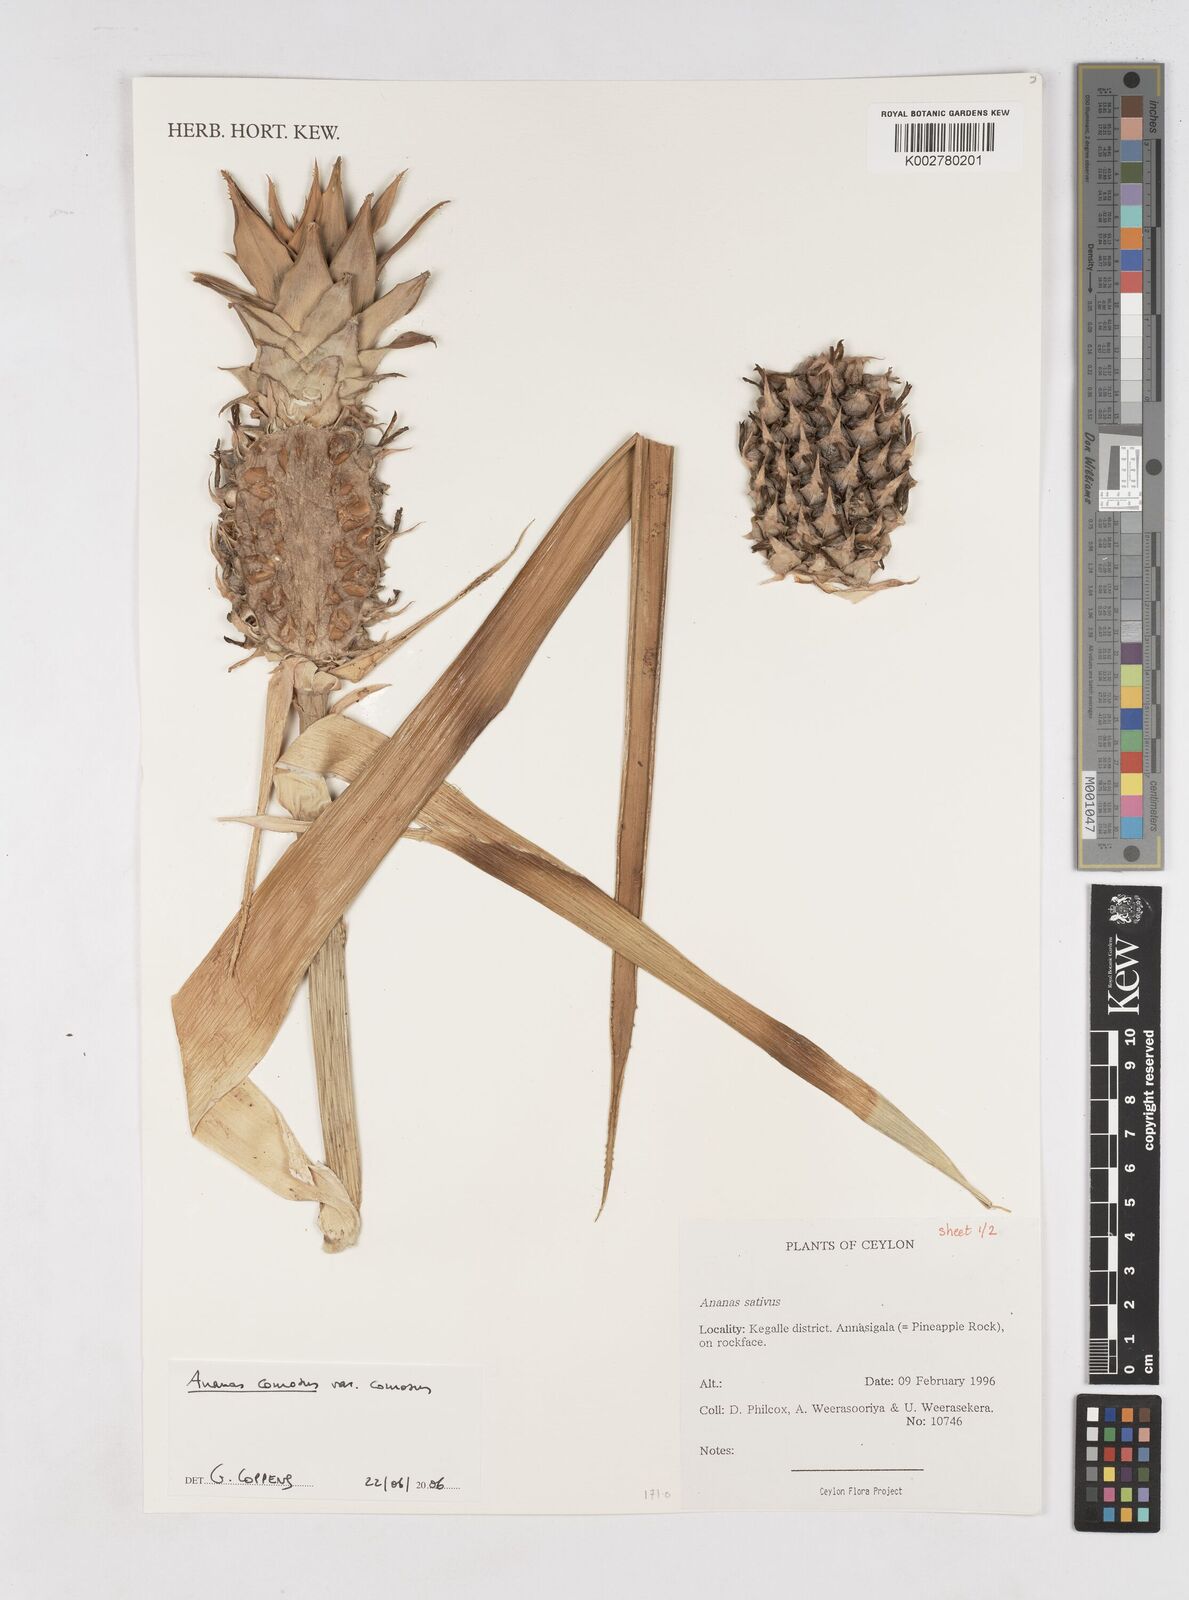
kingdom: Plantae
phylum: Tracheophyta
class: Liliopsida
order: Poales
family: Bromeliaceae
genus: Ananas
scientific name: Ananas comosus
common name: Pineapple
